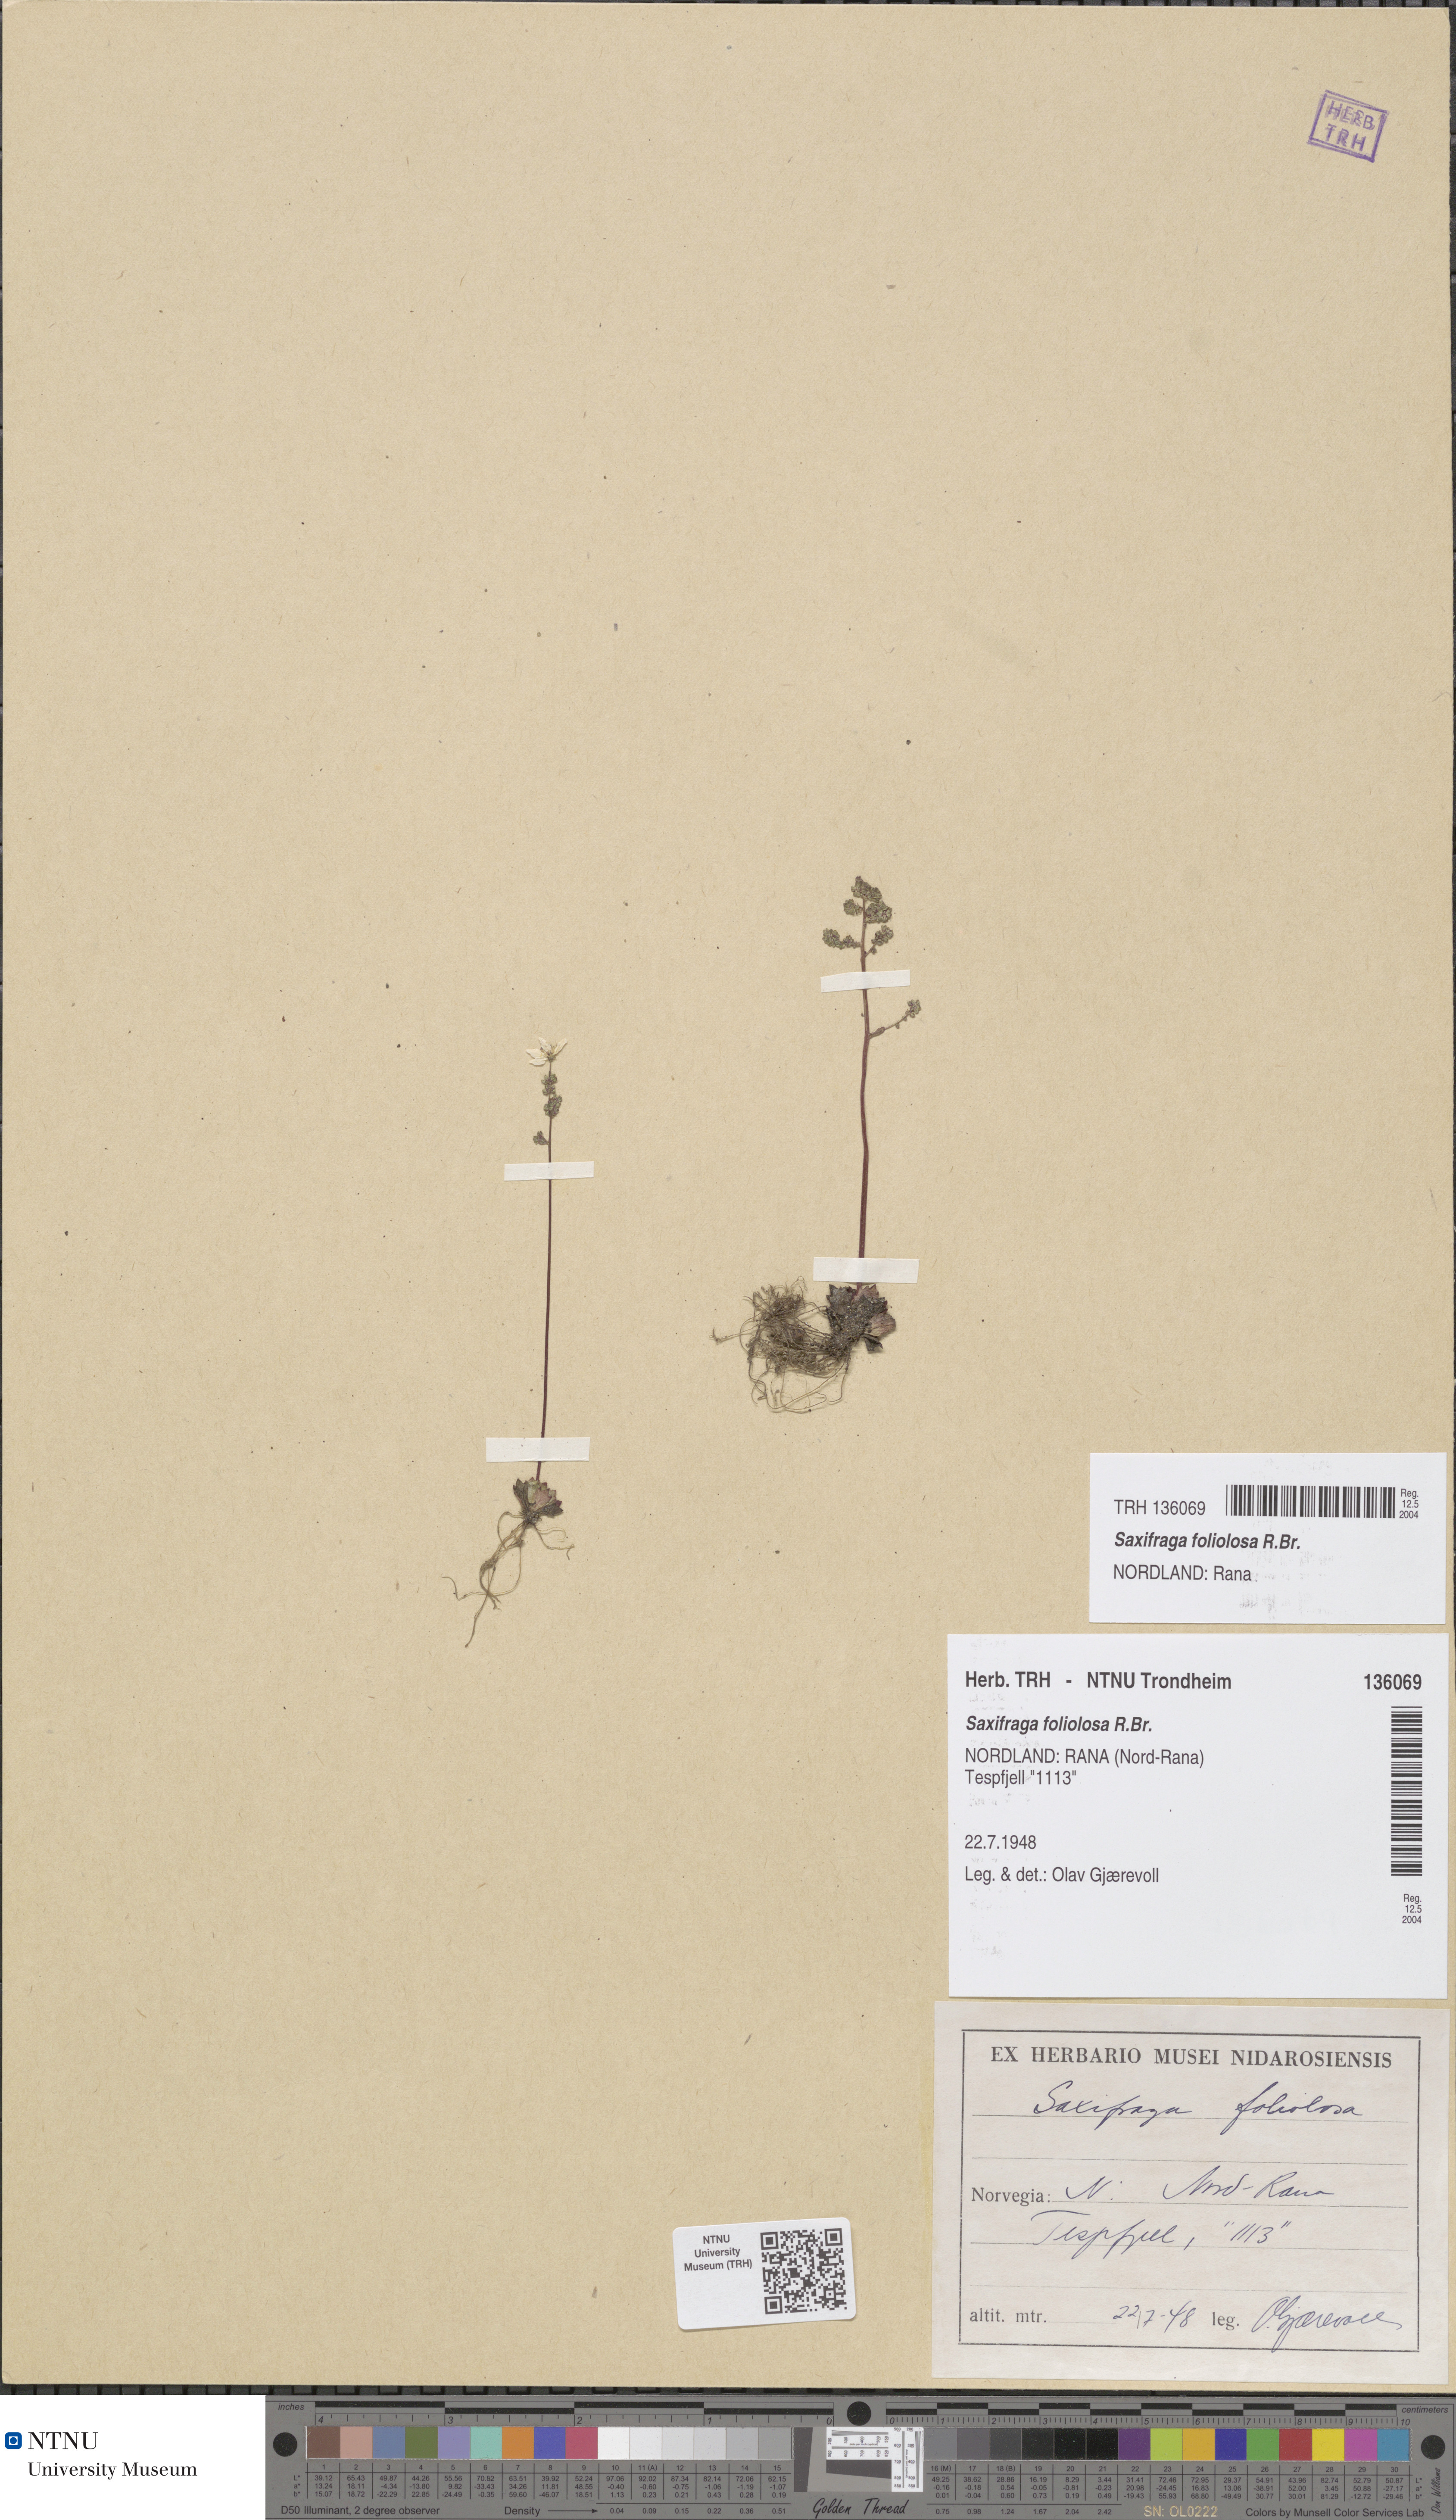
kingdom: Plantae
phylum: Tracheophyta
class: Magnoliopsida
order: Saxifragales
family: Saxifragaceae
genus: Micranthes
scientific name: Micranthes foliolosa
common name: Leafystem saxifrage
